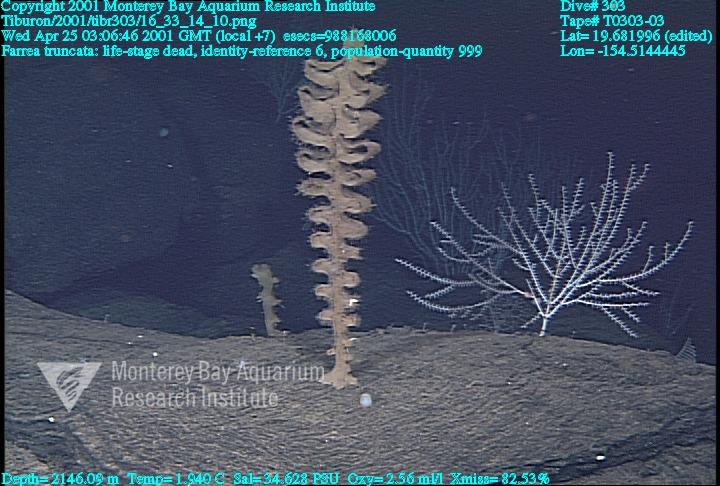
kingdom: Animalia
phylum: Porifera
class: Hexactinellida
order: Sceptrulophora
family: Farreidae
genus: Farrea
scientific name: Farrea truncata
